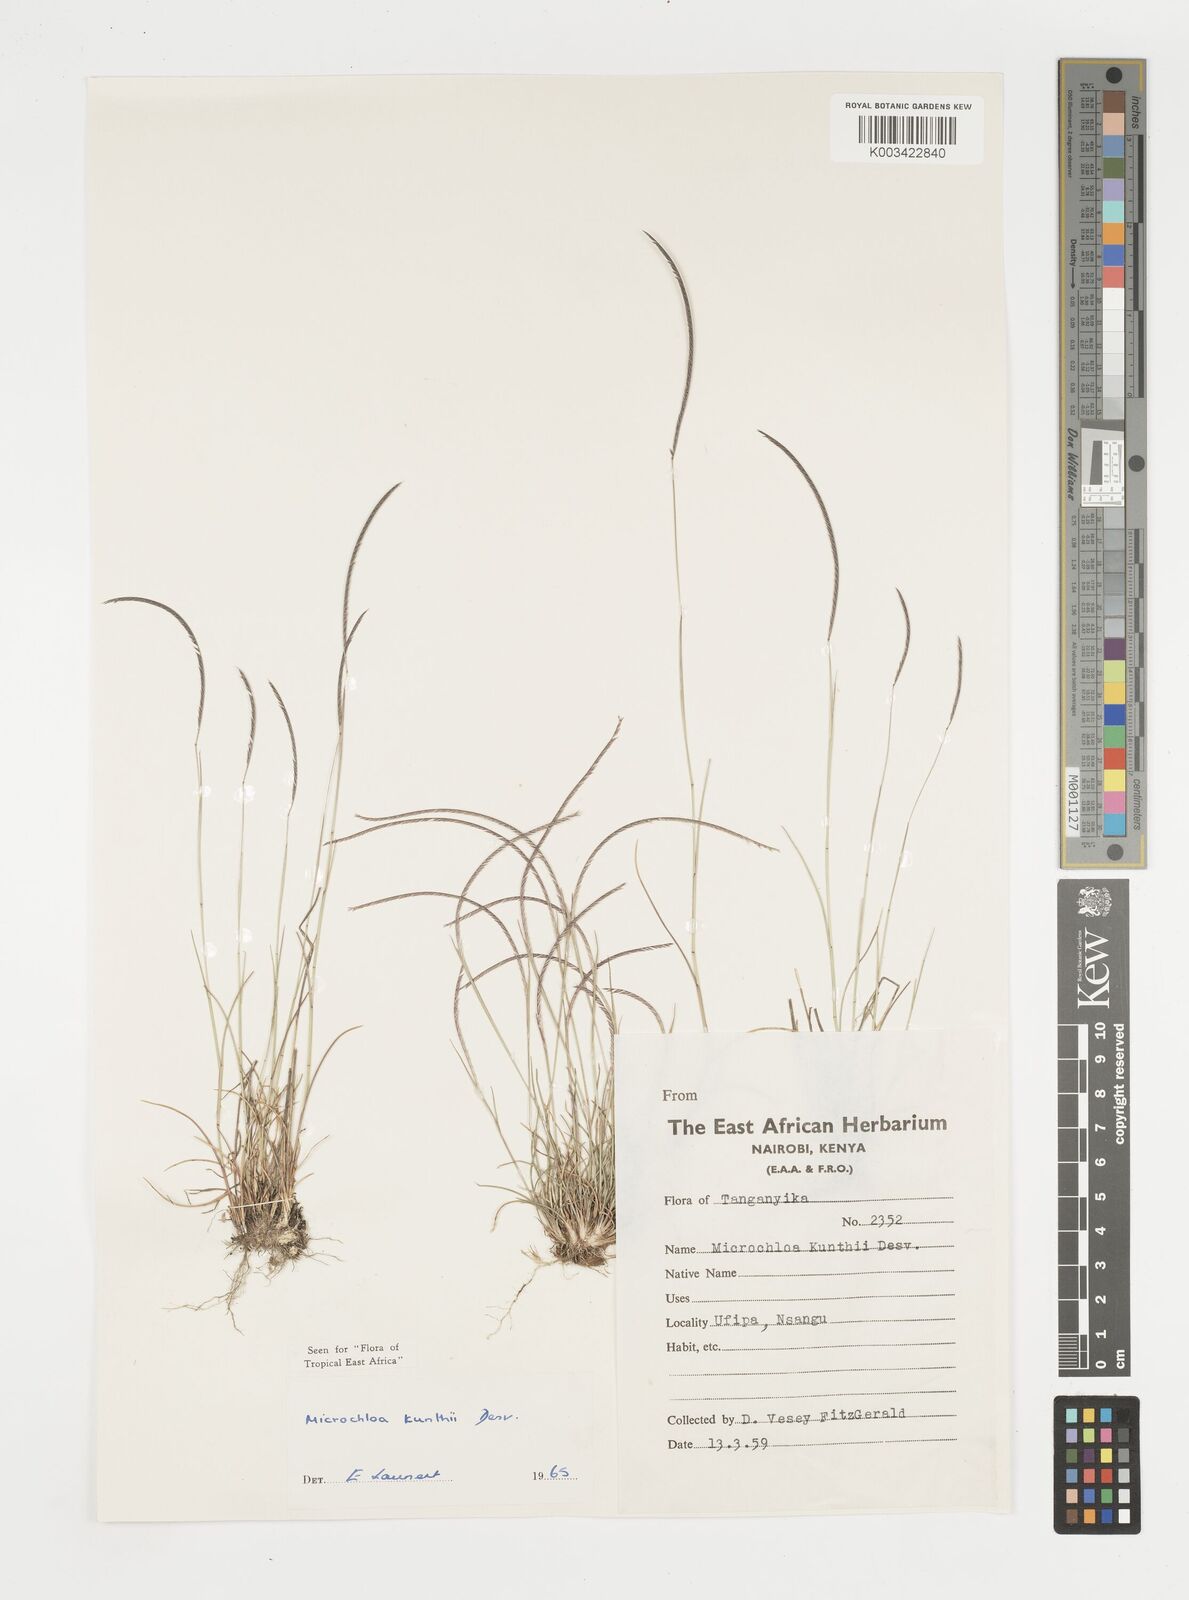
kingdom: Plantae
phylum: Tracheophyta
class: Liliopsida
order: Poales
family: Poaceae
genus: Microchloa
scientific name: Microchloa kunthii
